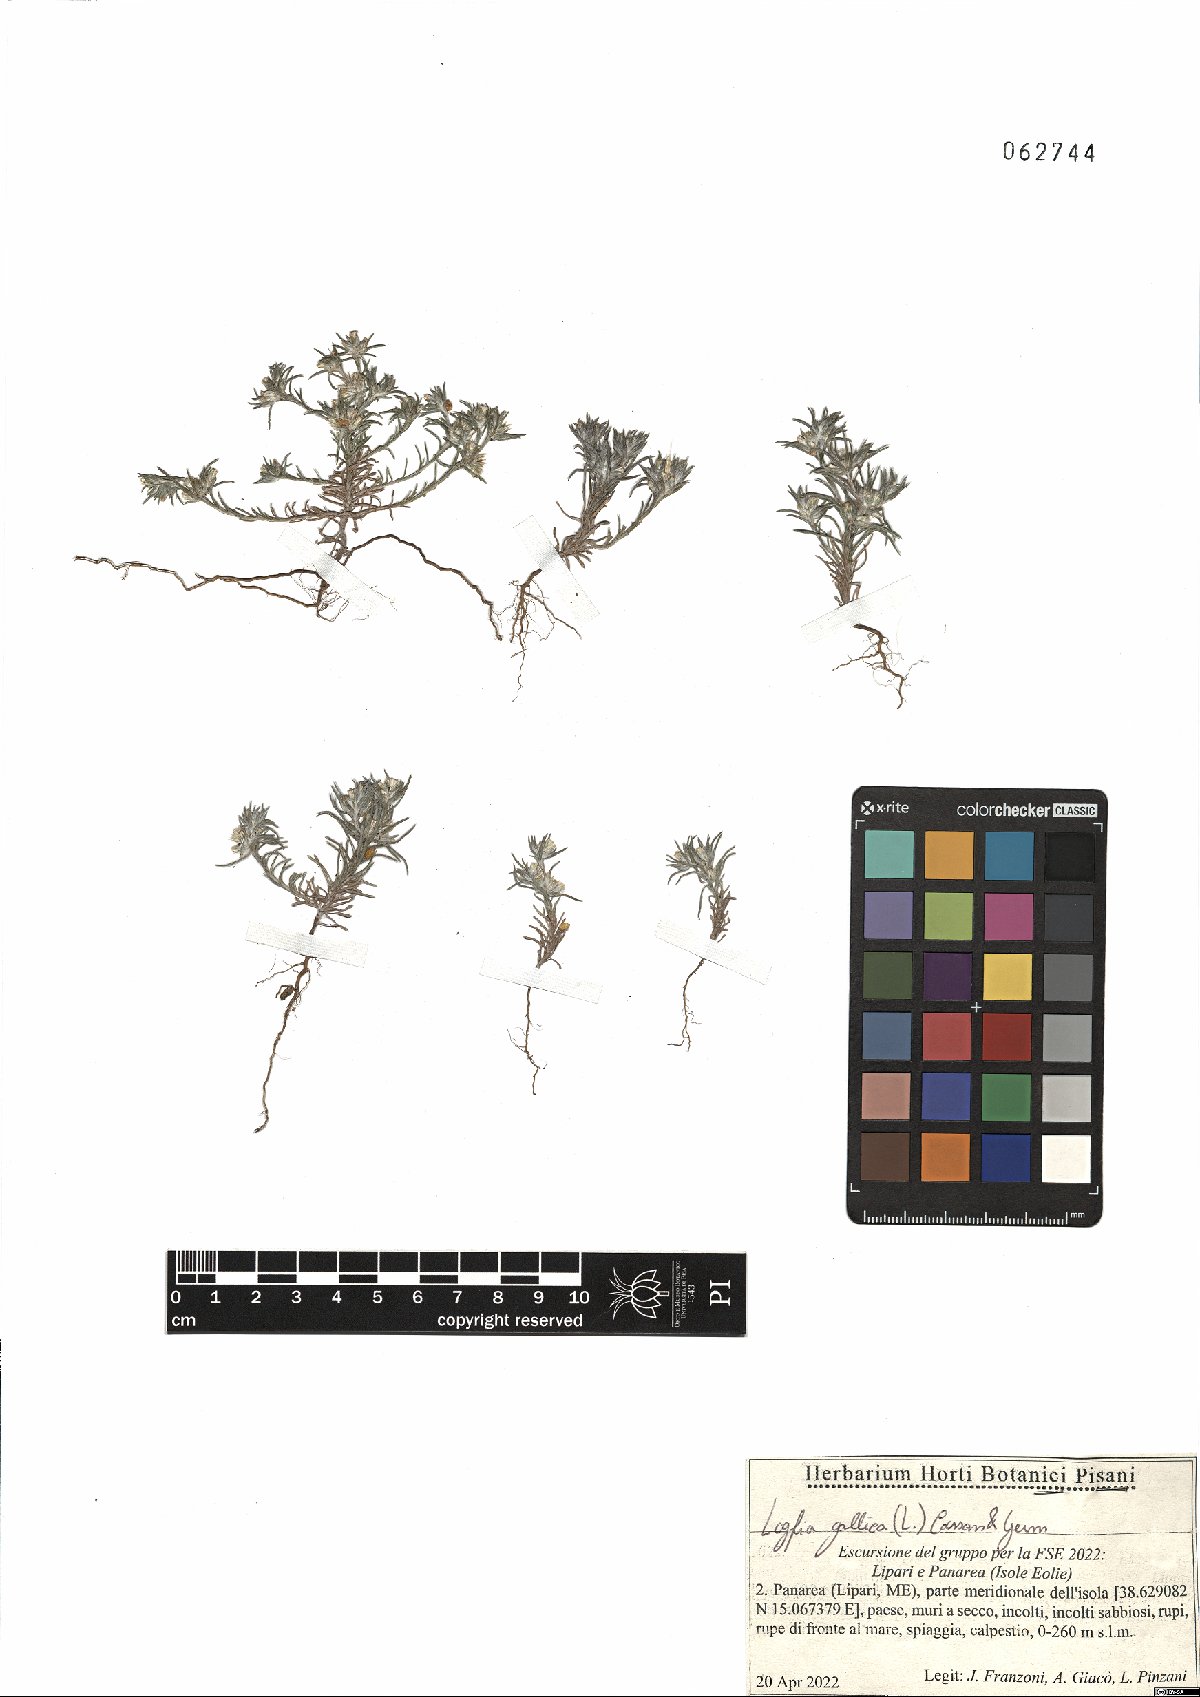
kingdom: Plantae
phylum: Tracheophyta
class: Magnoliopsida
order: Asterales
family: Asteraceae
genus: Logfia
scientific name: Logfia gallica
